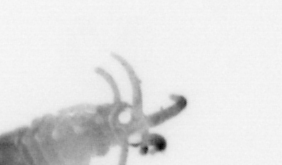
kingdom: Animalia
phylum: Annelida
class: Polychaeta
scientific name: Polychaeta
